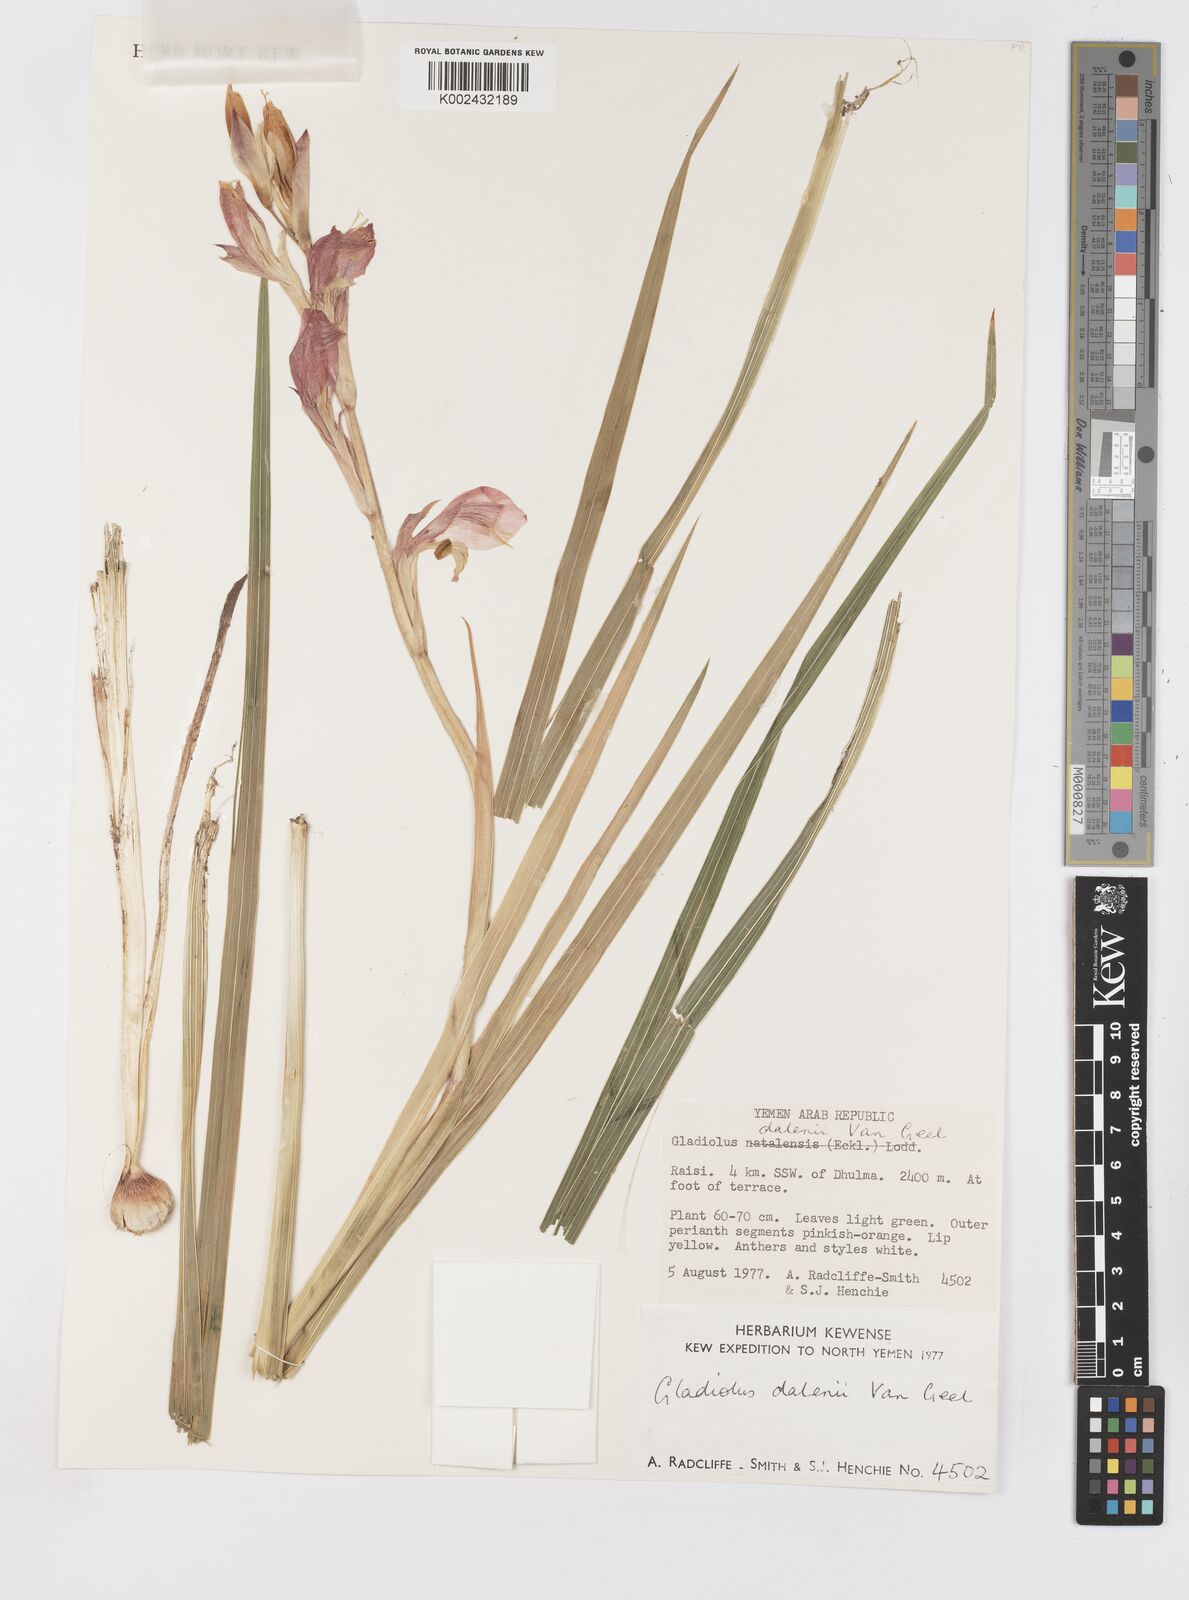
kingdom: Plantae
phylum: Tracheophyta
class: Liliopsida
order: Asparagales
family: Iridaceae
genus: Gladiolus
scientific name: Gladiolus dalenii
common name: Cornflag
